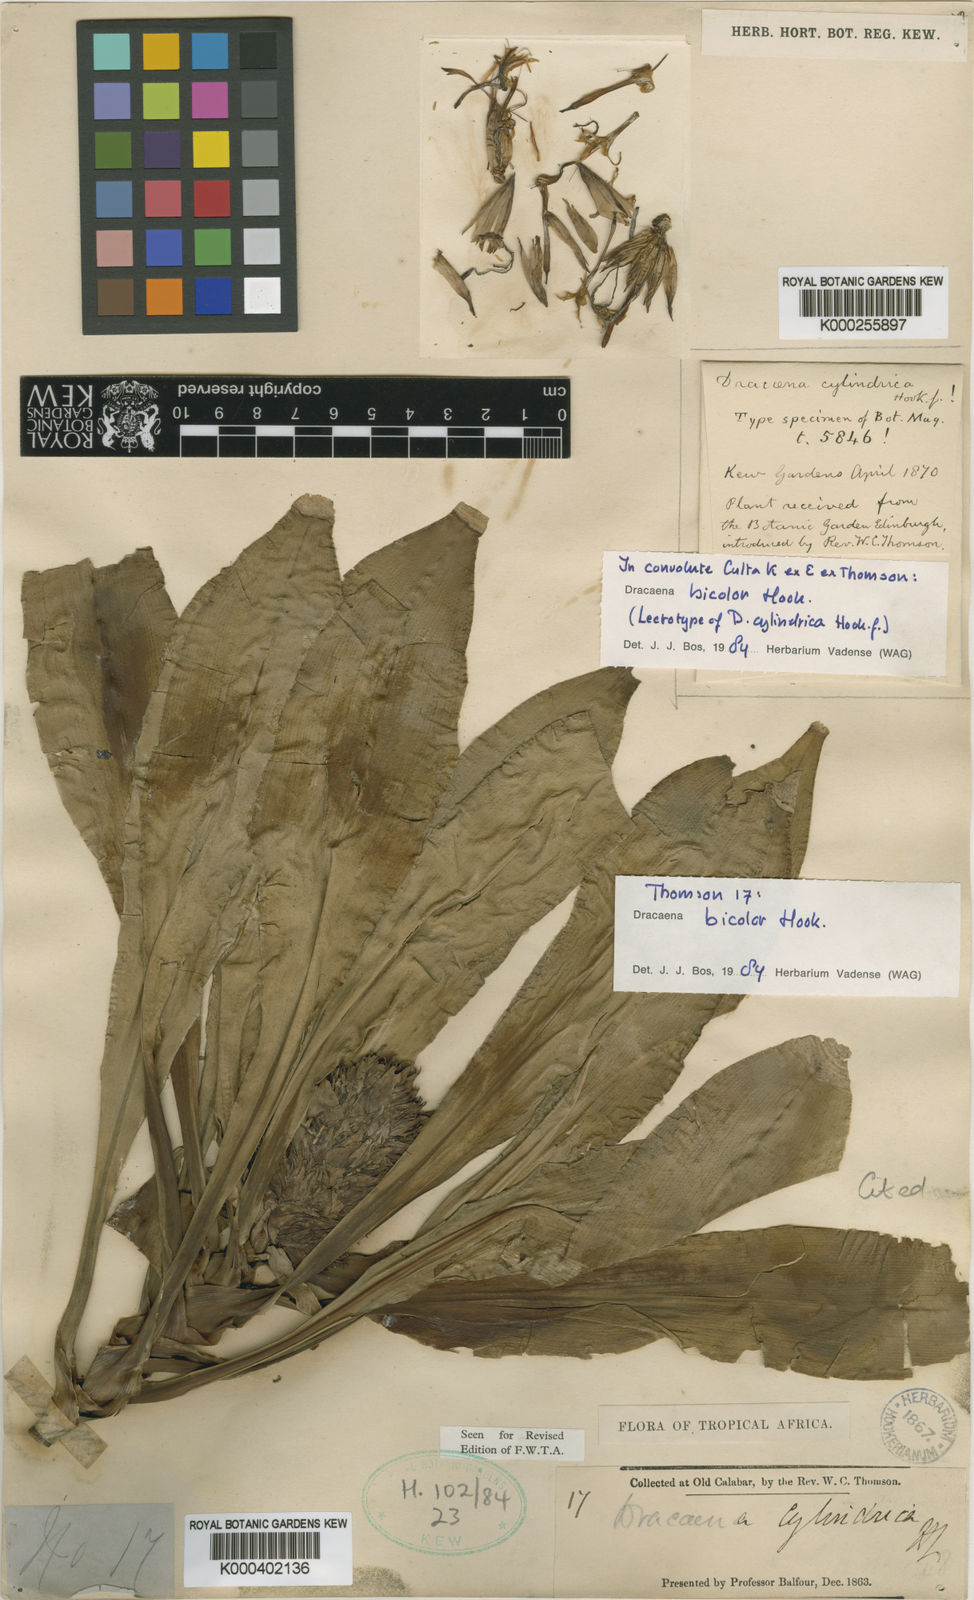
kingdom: Plantae
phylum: Tracheophyta
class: Liliopsida
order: Asparagales
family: Asparagaceae
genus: Dracaena
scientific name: Dracaena bicolor
